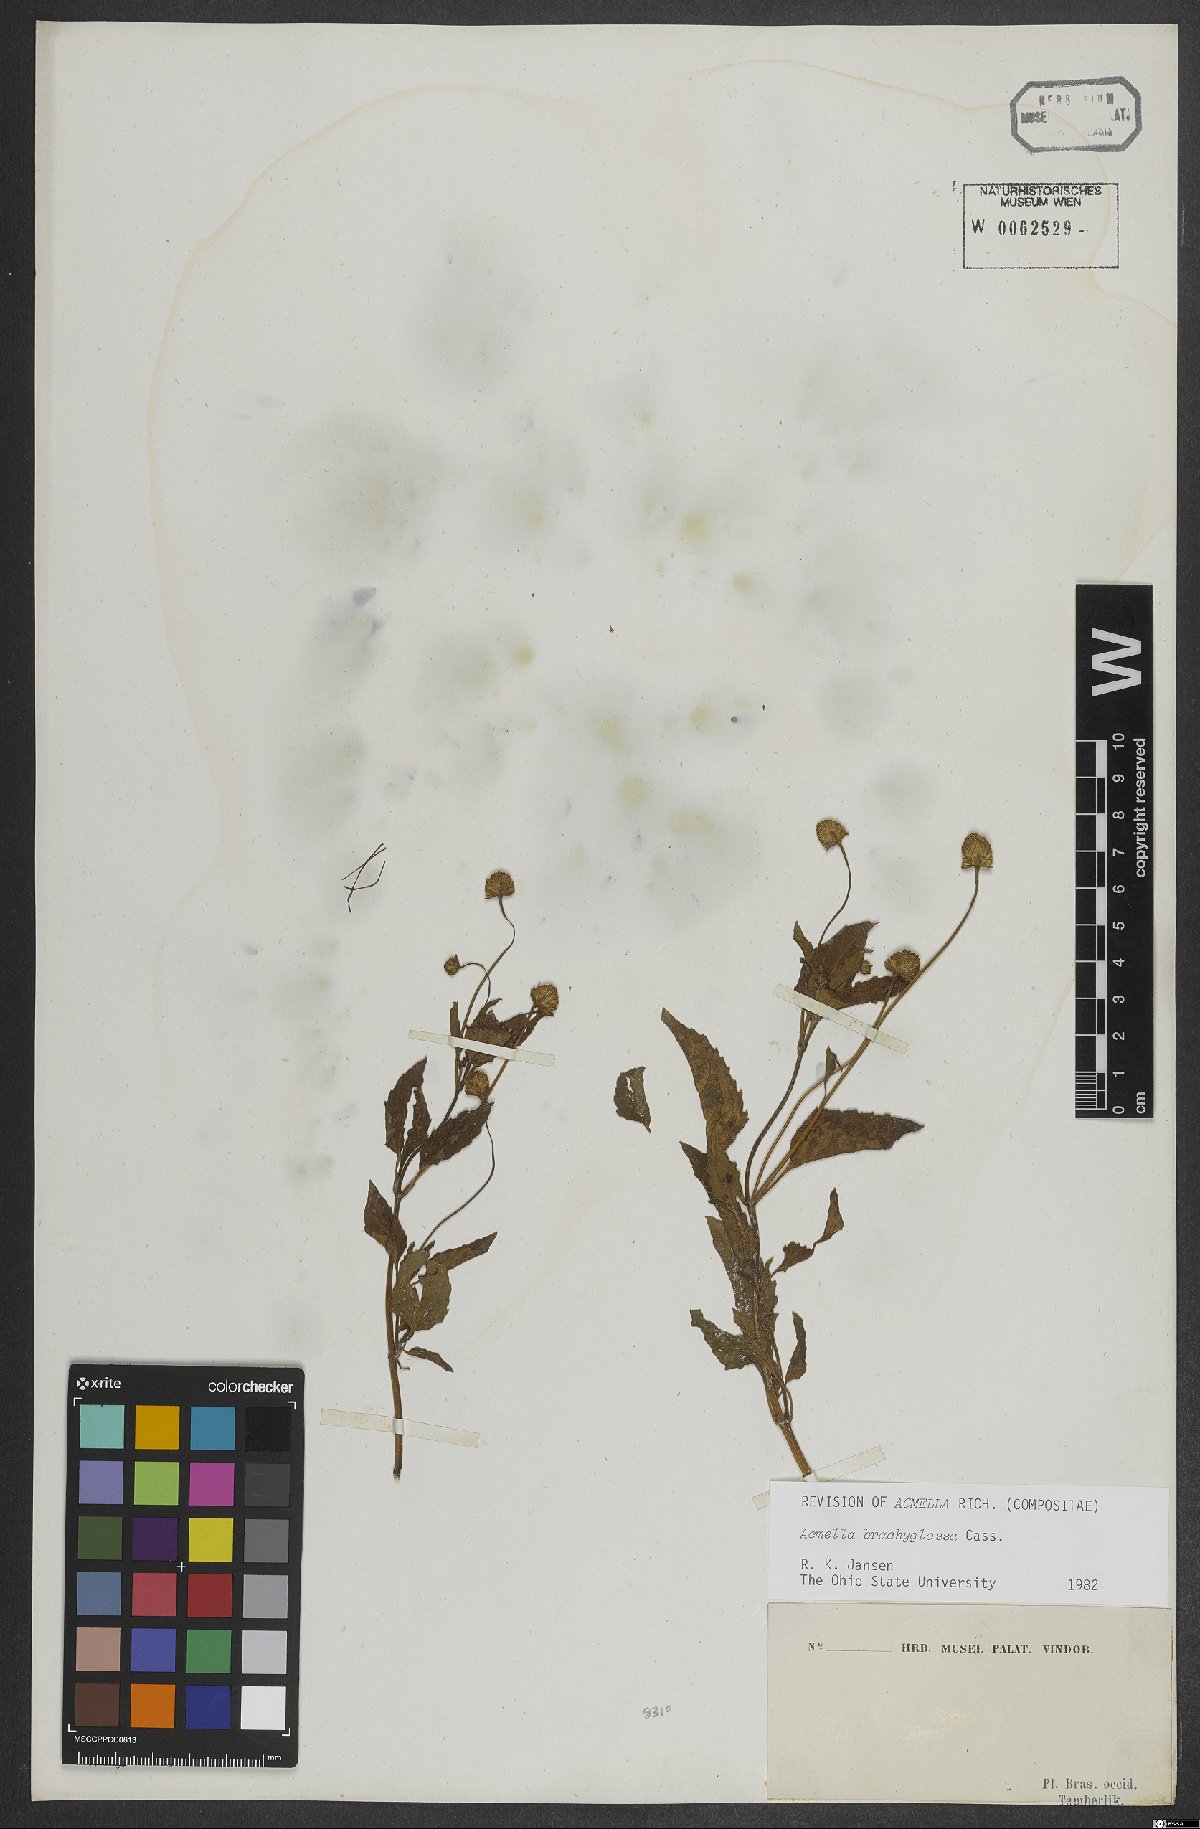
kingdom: Plantae
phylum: Tracheophyta
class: Magnoliopsida
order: Asterales
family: Asteraceae
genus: Acmella
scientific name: Acmella brachyglossa
